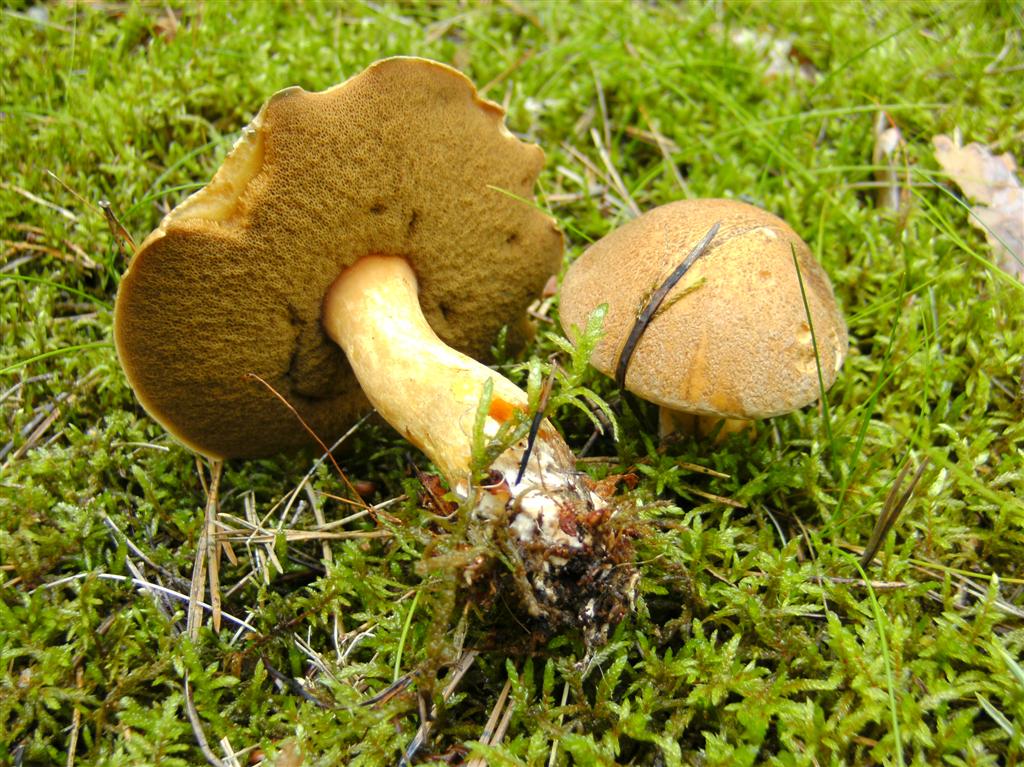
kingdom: Fungi
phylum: Basidiomycota
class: Agaricomycetes
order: Boletales
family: Suillaceae
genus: Suillus
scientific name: Suillus variegatus
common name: broget slimrørhat
